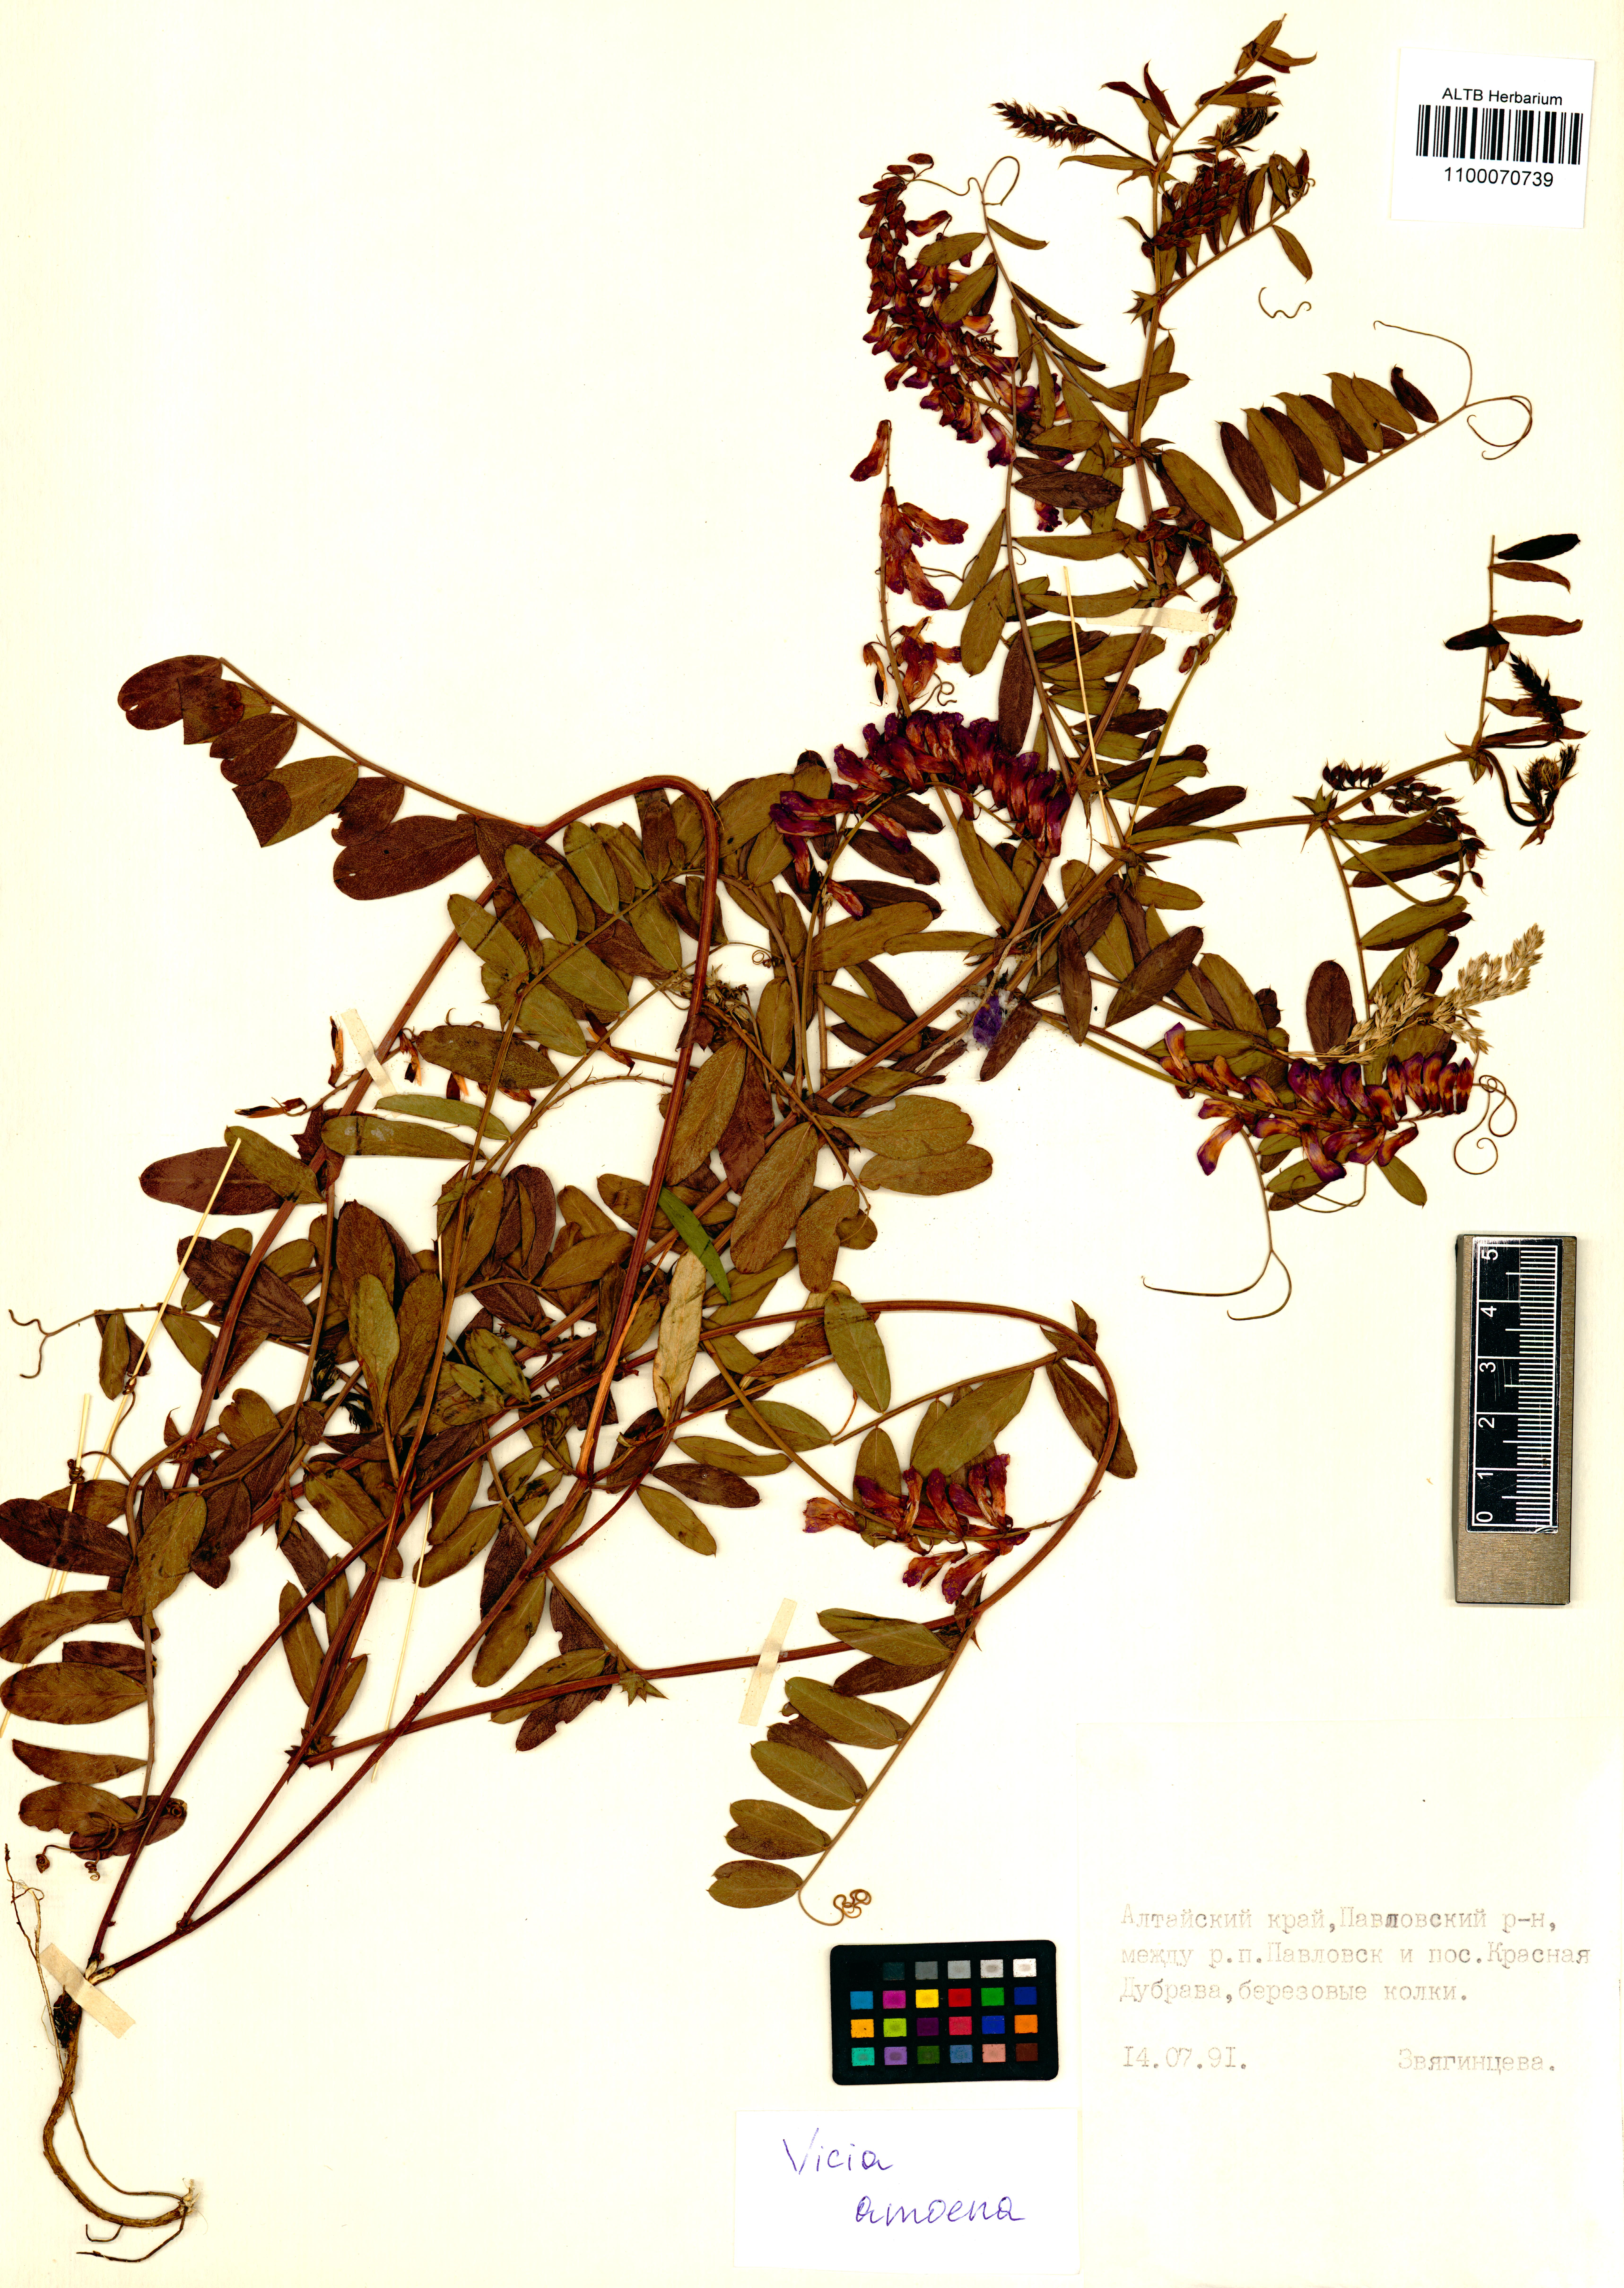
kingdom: Plantae
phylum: Tracheophyta
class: Magnoliopsida
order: Fabales
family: Fabaceae
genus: Vicia
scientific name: Vicia amoena
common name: Cheder ebs
